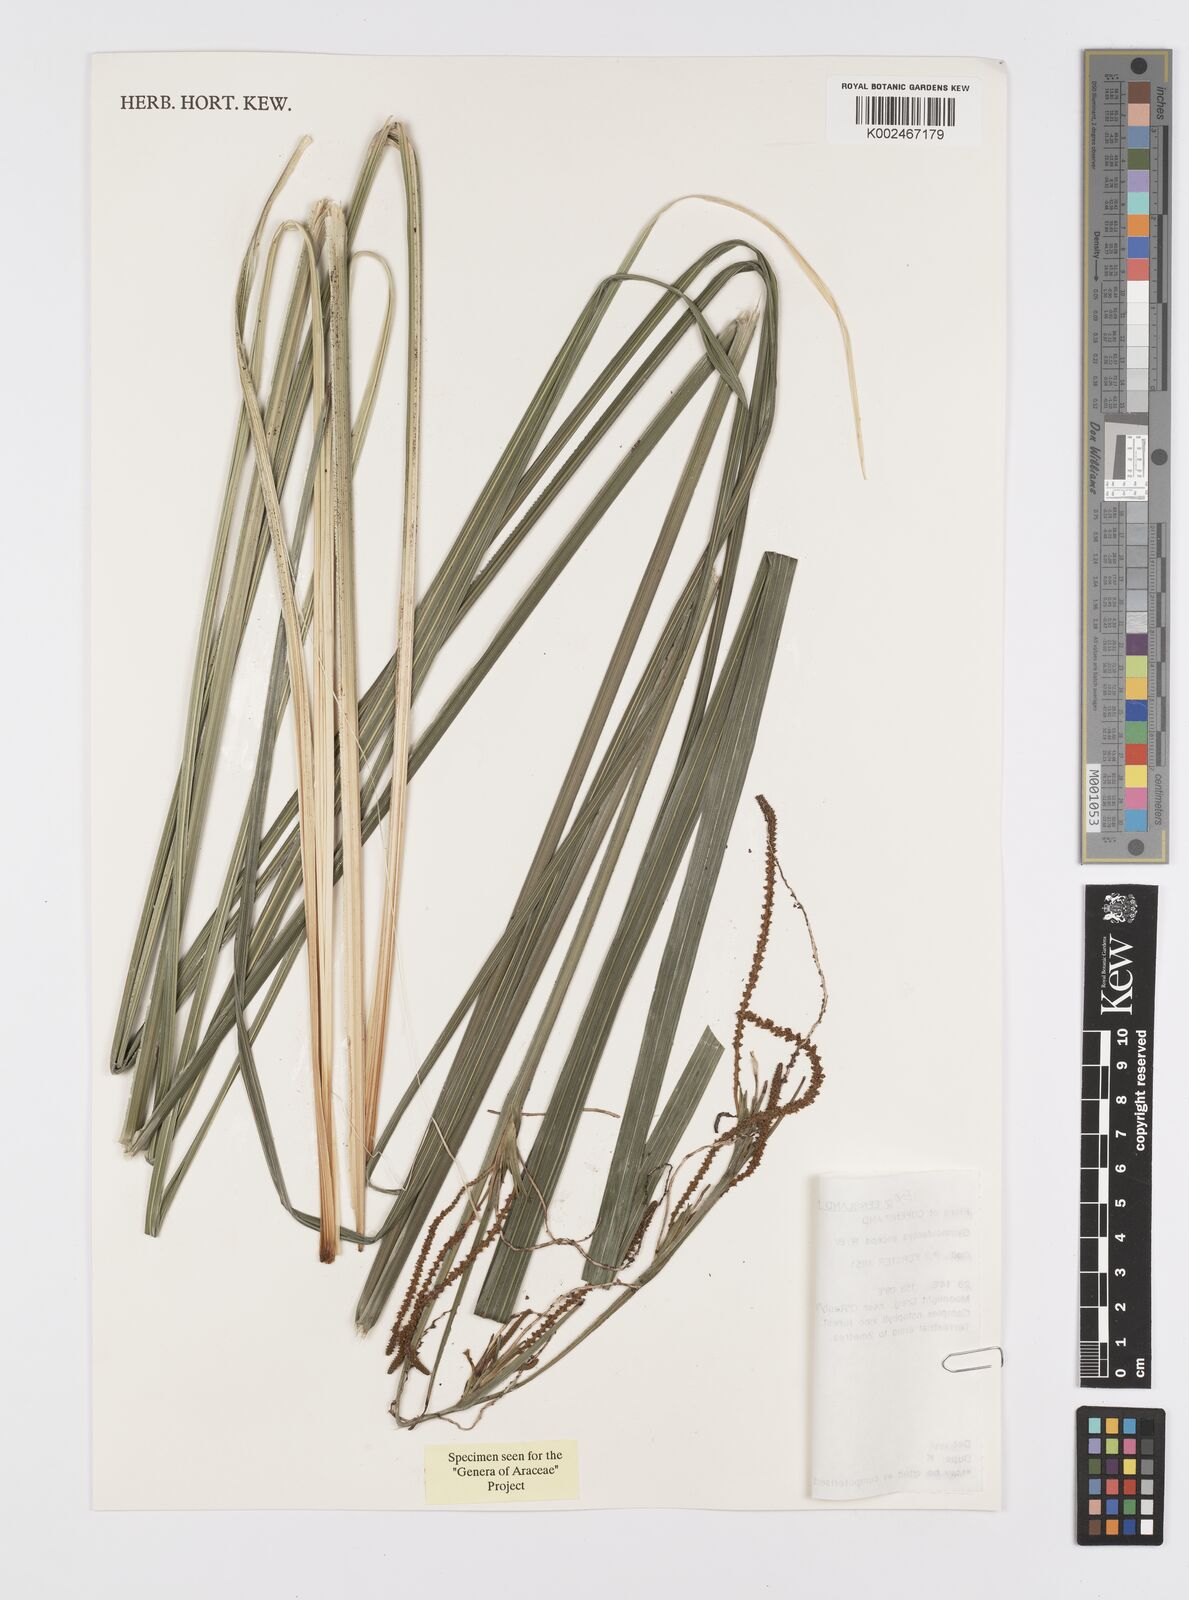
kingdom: Plantae
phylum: Tracheophyta
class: Liliopsida
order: Alismatales
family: Araceae
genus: Gymnostachys
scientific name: Gymnostachys anceps
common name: Settler's-flax
